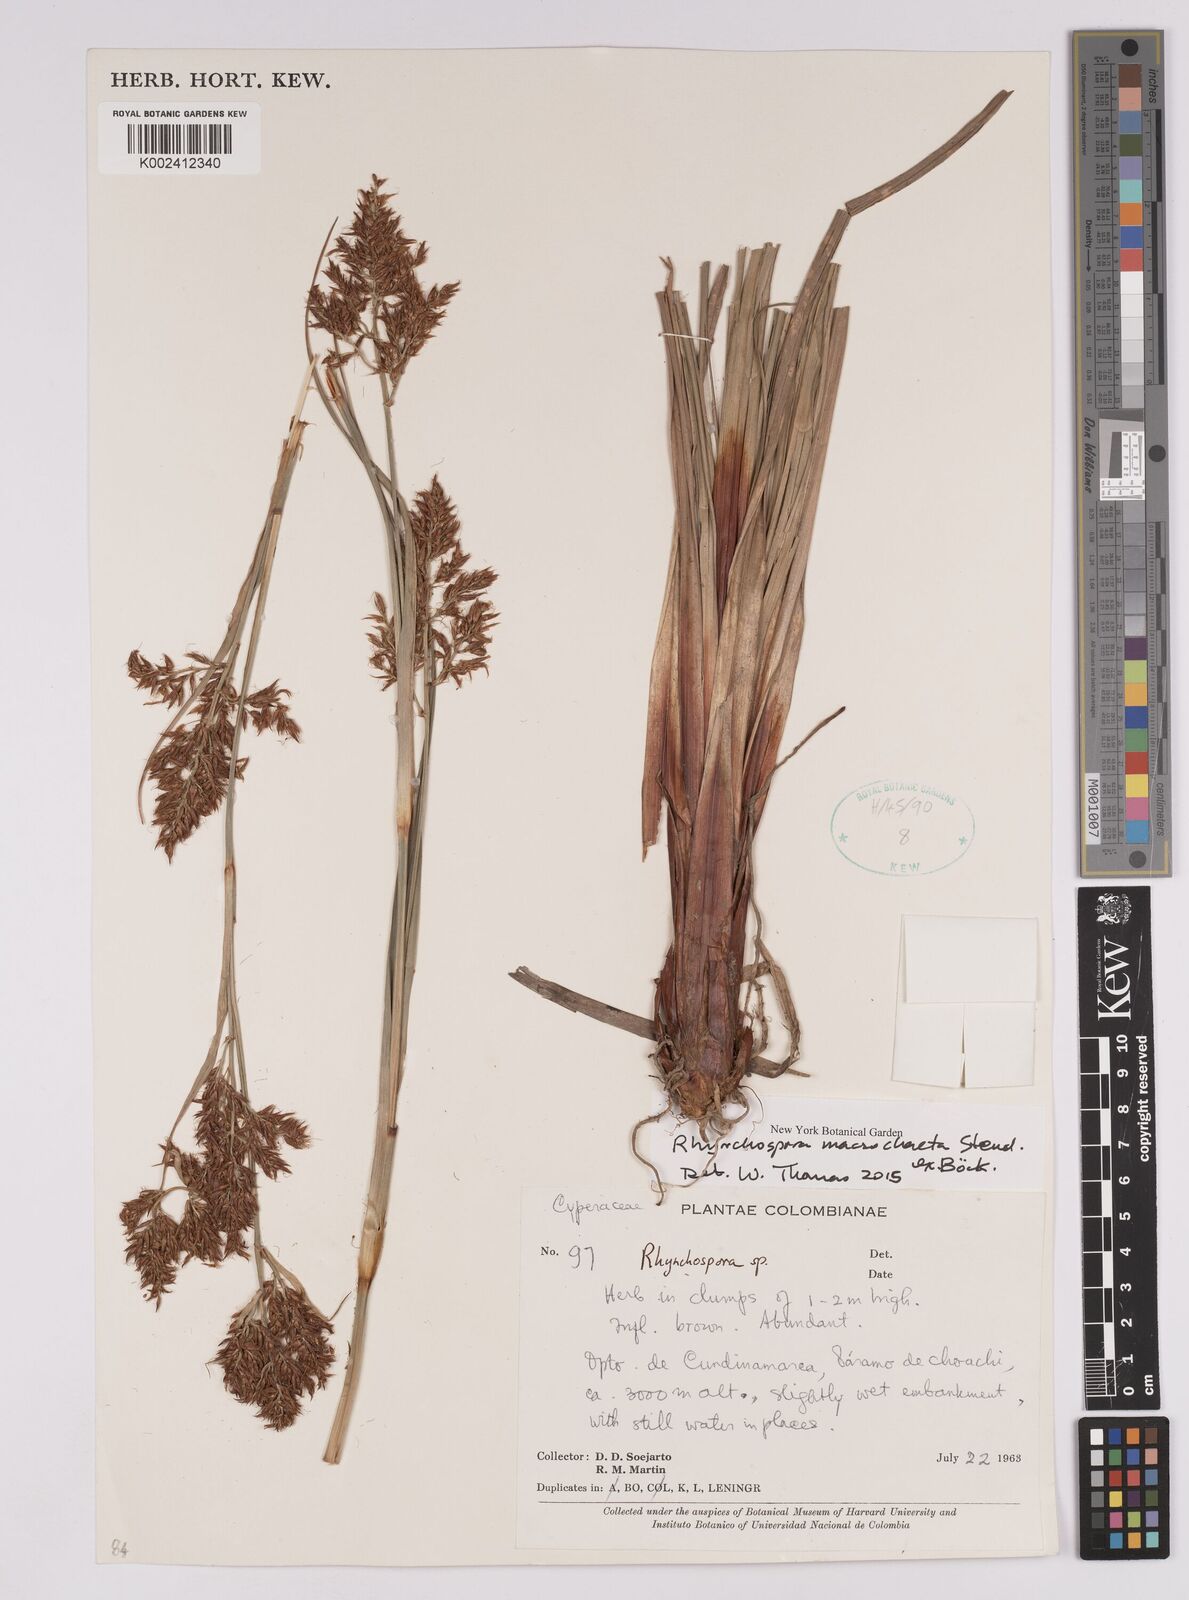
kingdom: Plantae
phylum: Tracheophyta
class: Liliopsida
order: Poales
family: Cyperaceae
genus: Rhynchospora
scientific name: Rhynchospora macrochaeta
